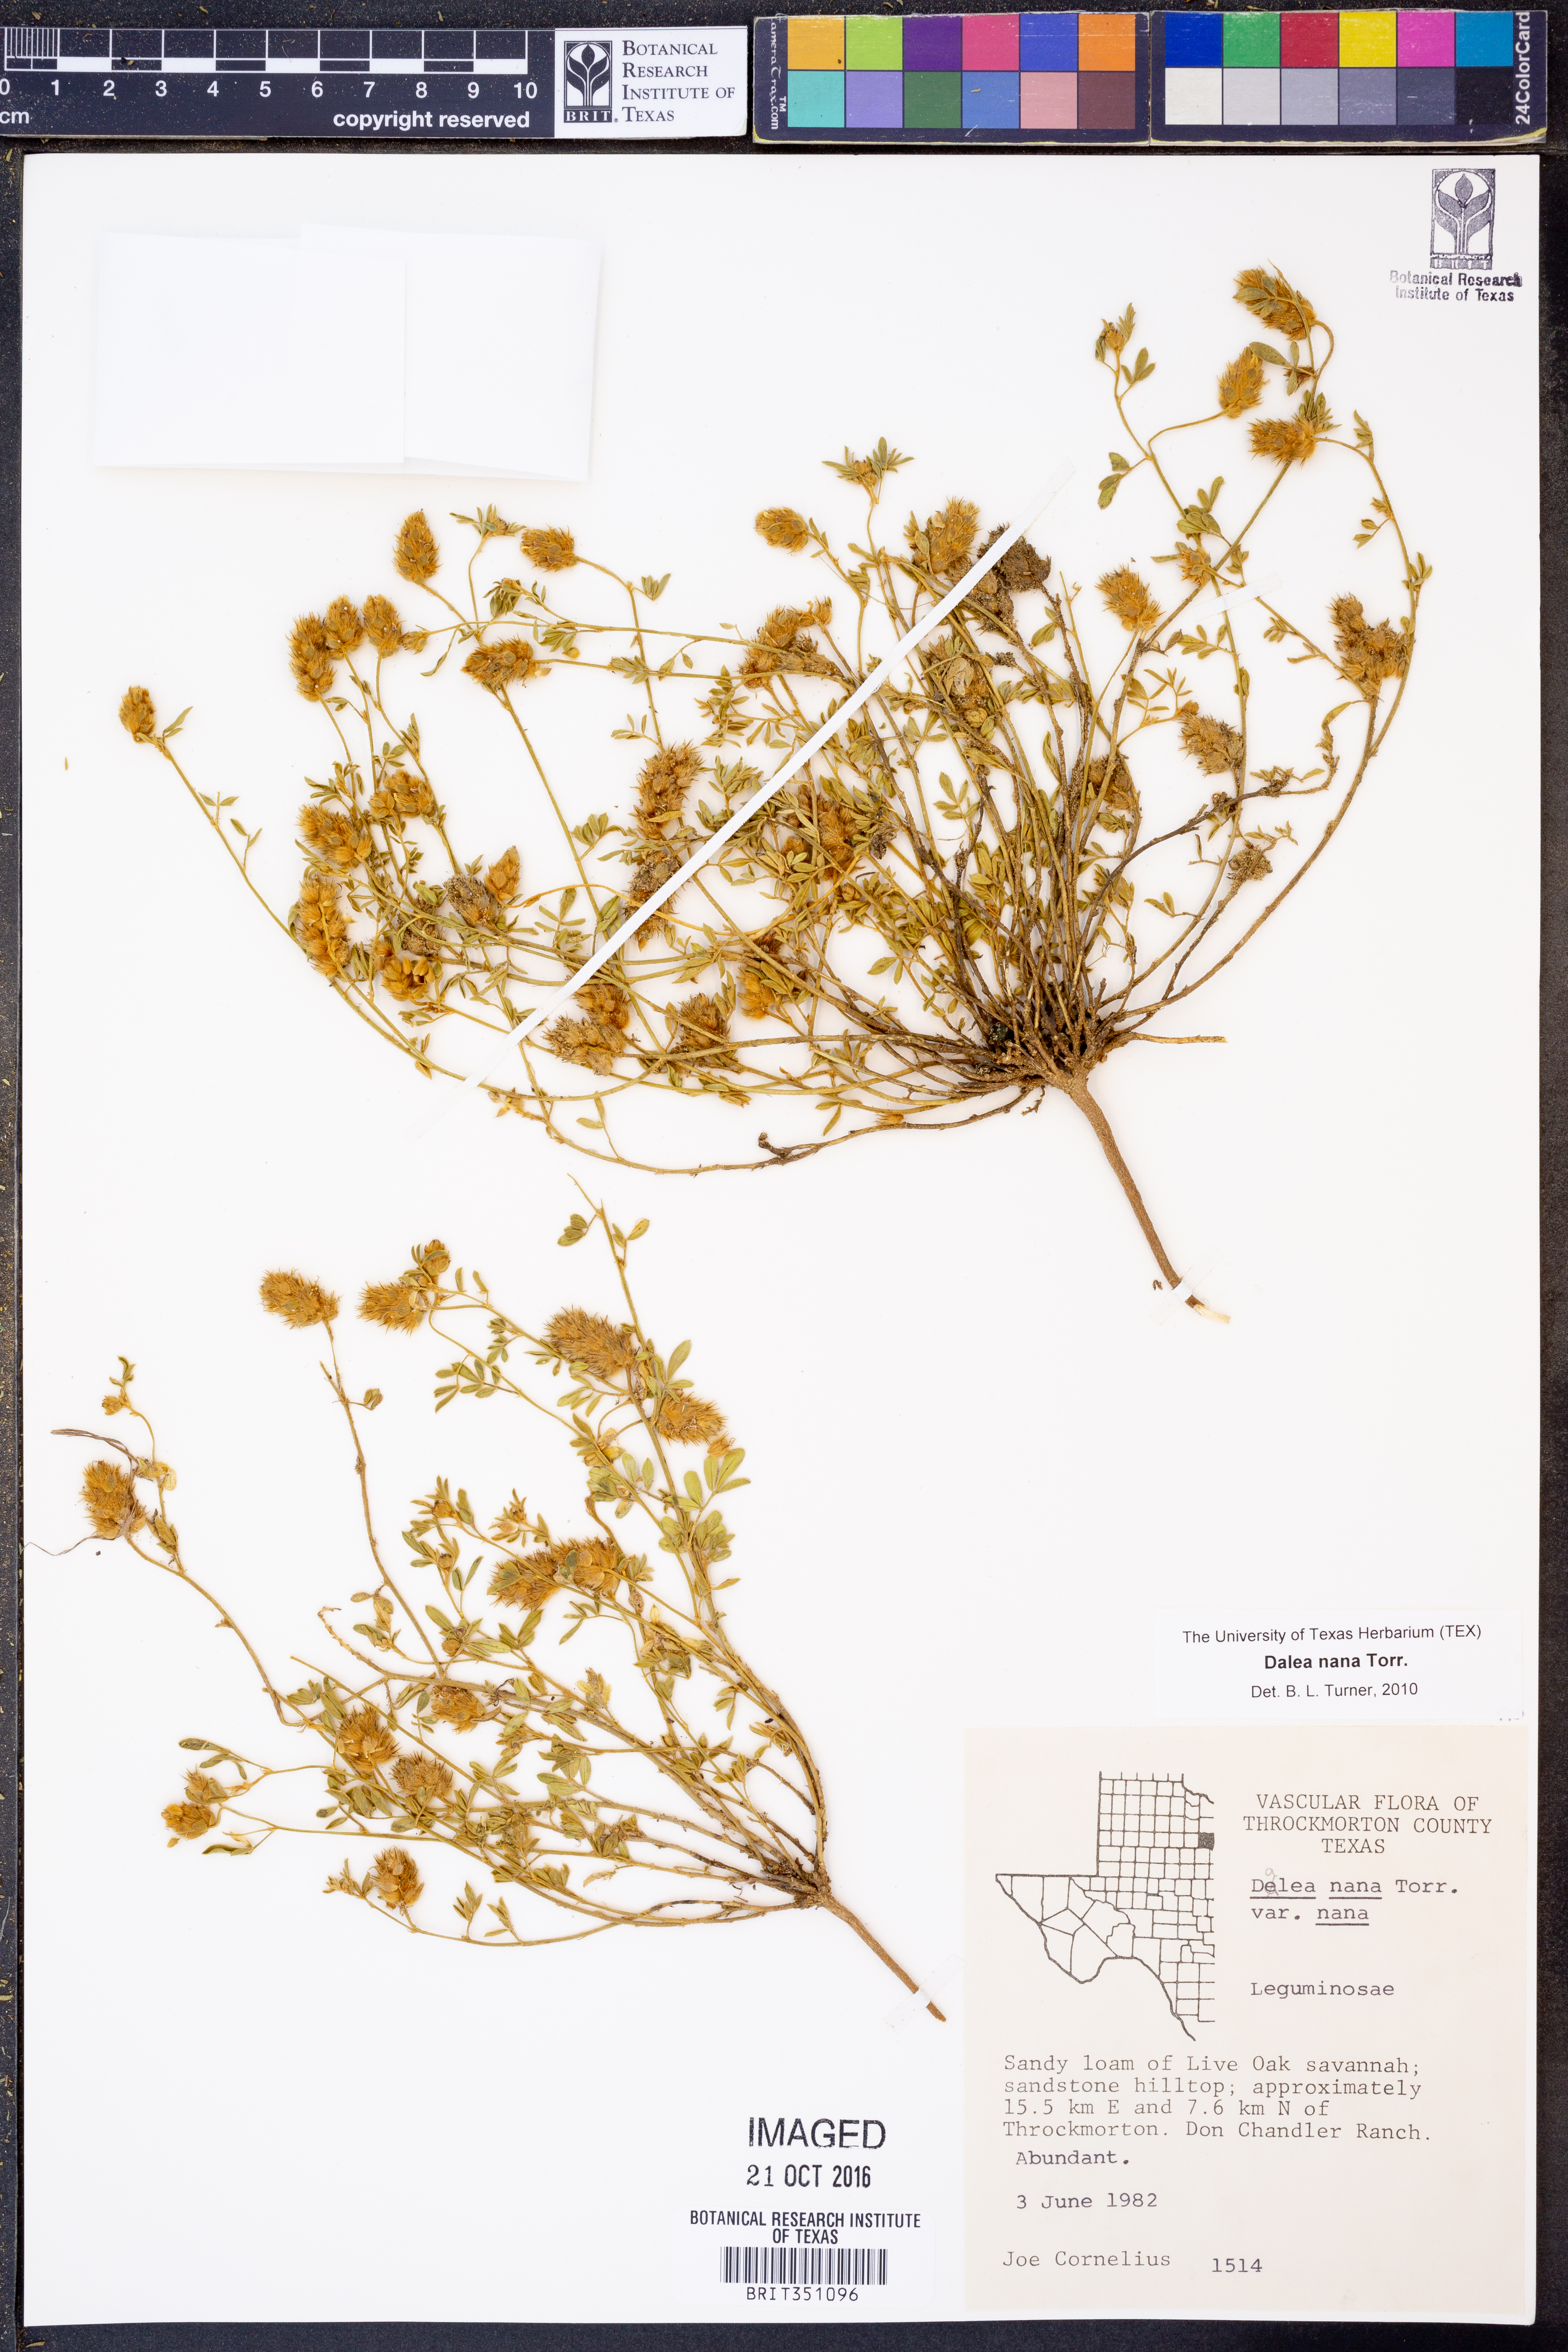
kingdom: Plantae
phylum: Tracheophyta
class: Magnoliopsida
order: Fabales
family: Fabaceae
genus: Dalea
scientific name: Dalea nana
